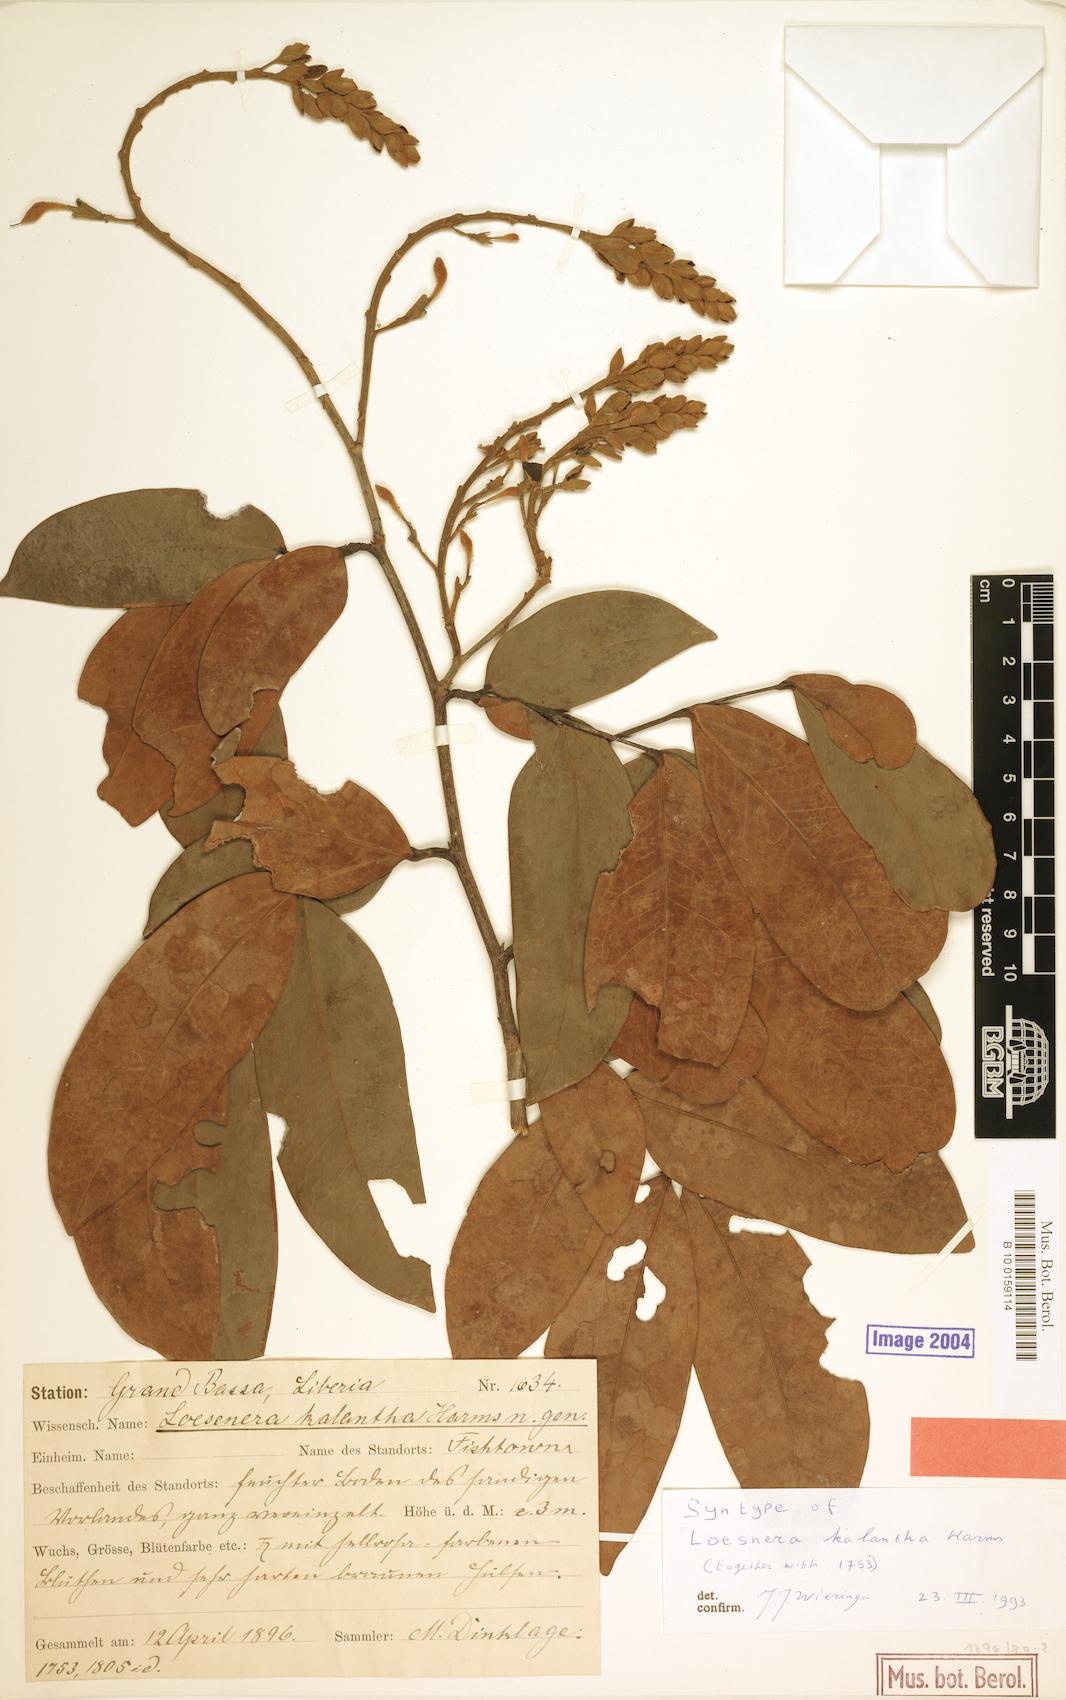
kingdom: Plantae
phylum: Tracheophyta
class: Magnoliopsida
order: Fabales
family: Fabaceae
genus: Loesenera
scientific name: Loesenera kalantha
